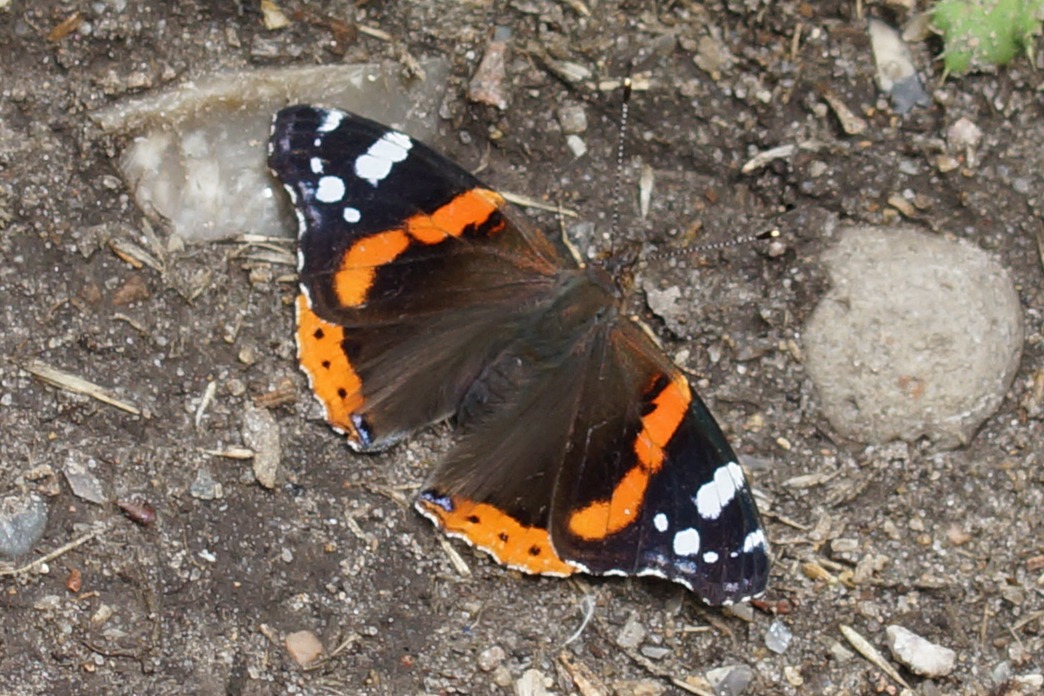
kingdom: Animalia
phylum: Arthropoda
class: Insecta
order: Lepidoptera
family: Nymphalidae
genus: Vanessa
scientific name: Vanessa atalanta
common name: Admiral
